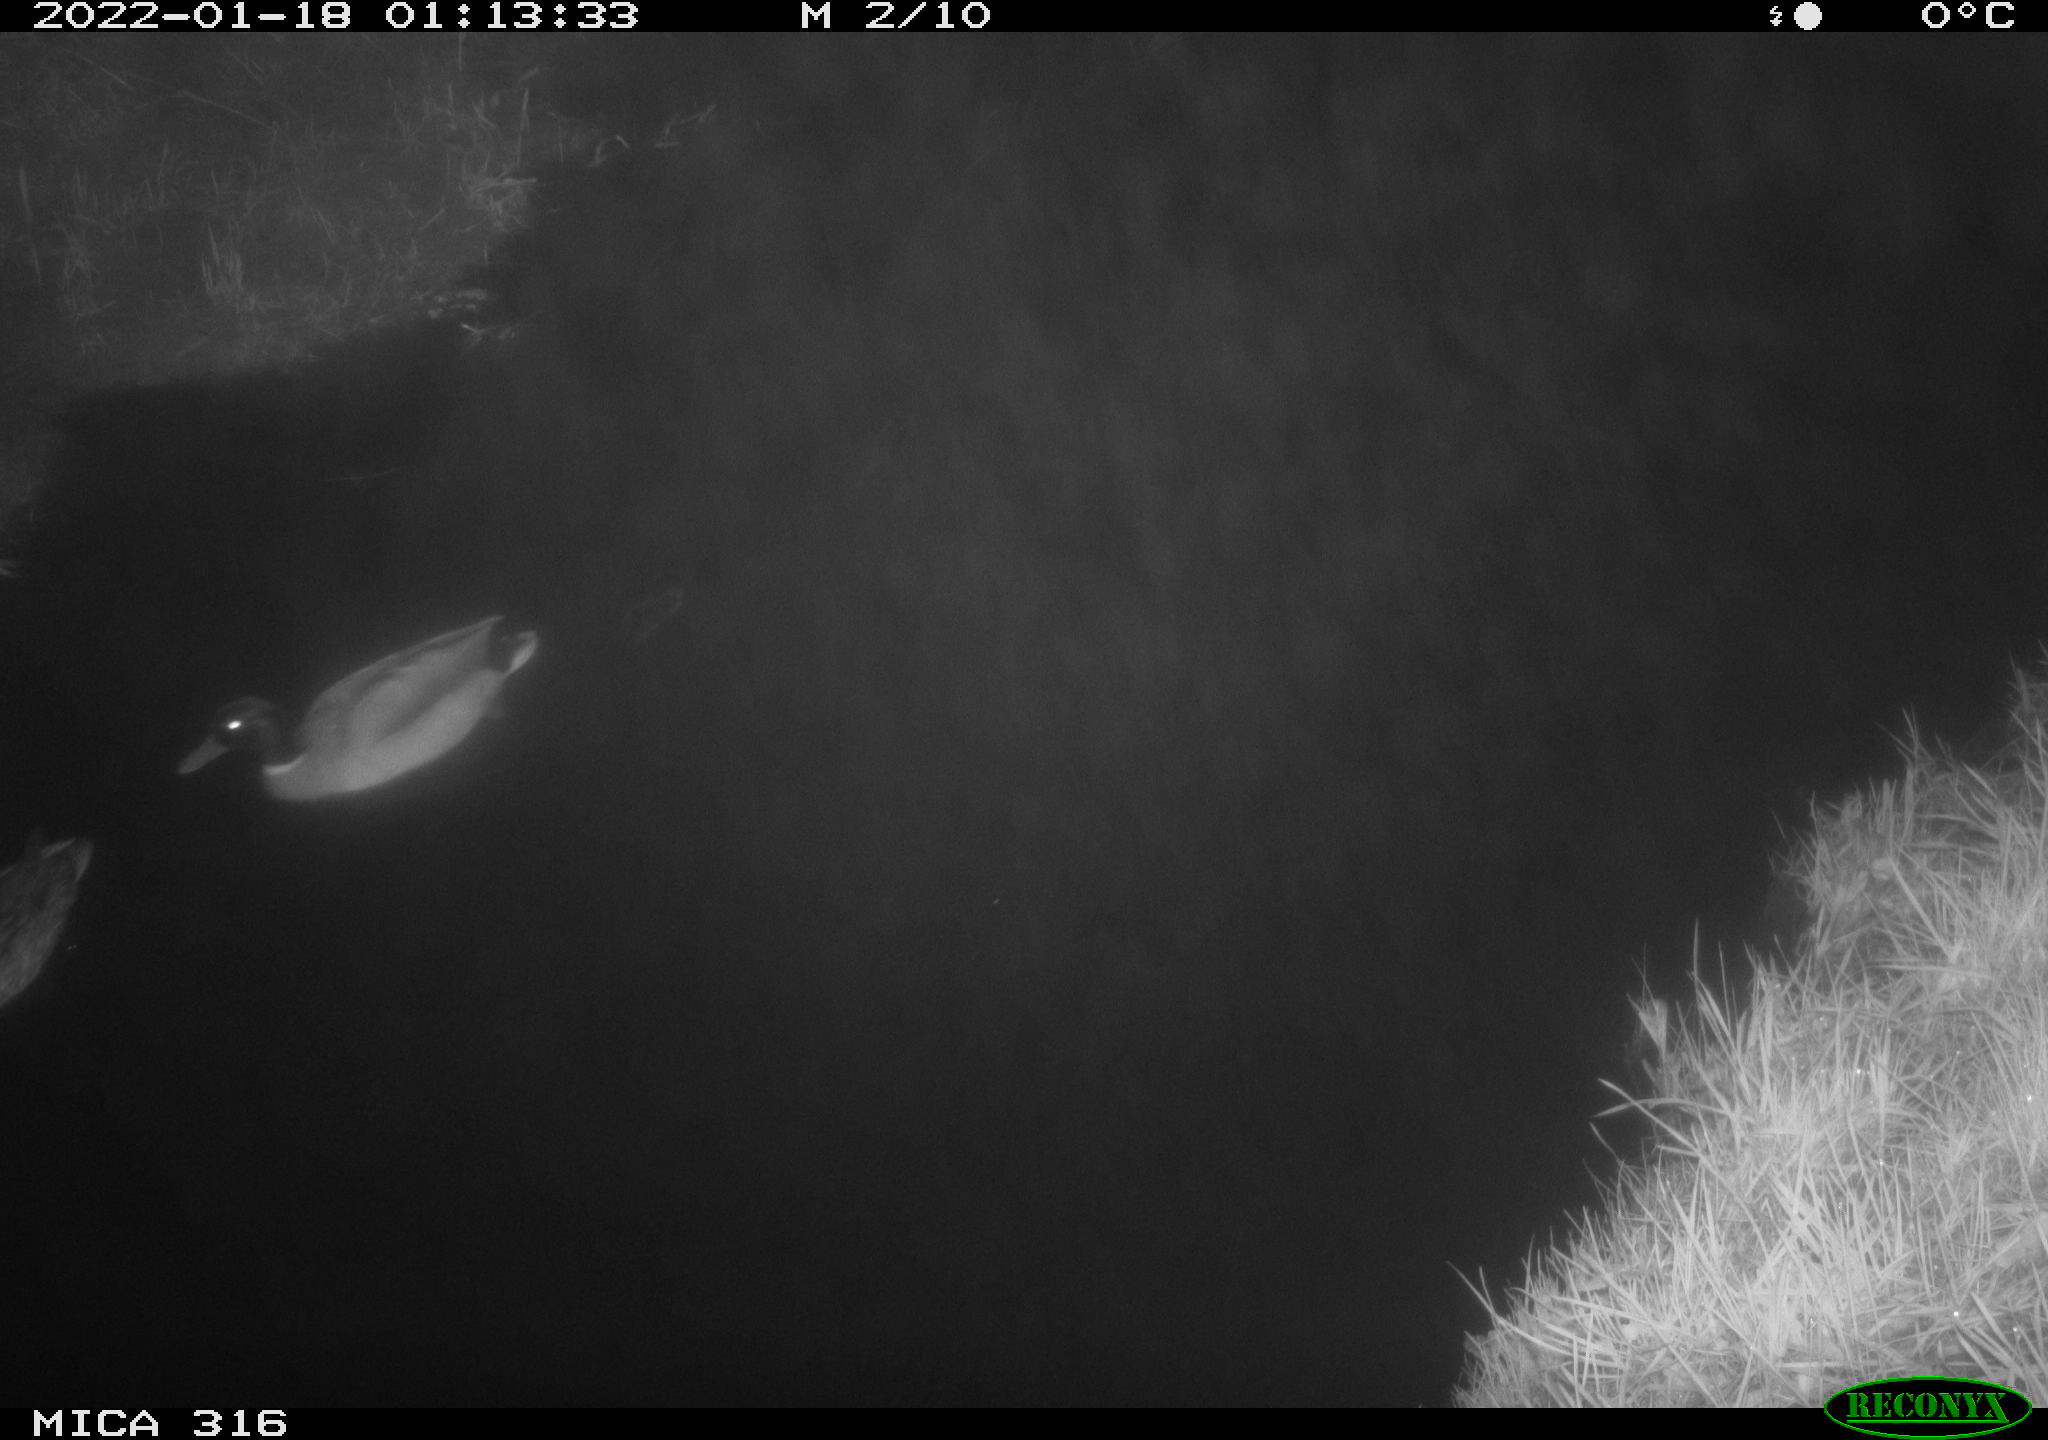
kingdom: Animalia
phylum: Chordata
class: Aves
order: Anseriformes
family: Anatidae
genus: Anas
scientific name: Anas
